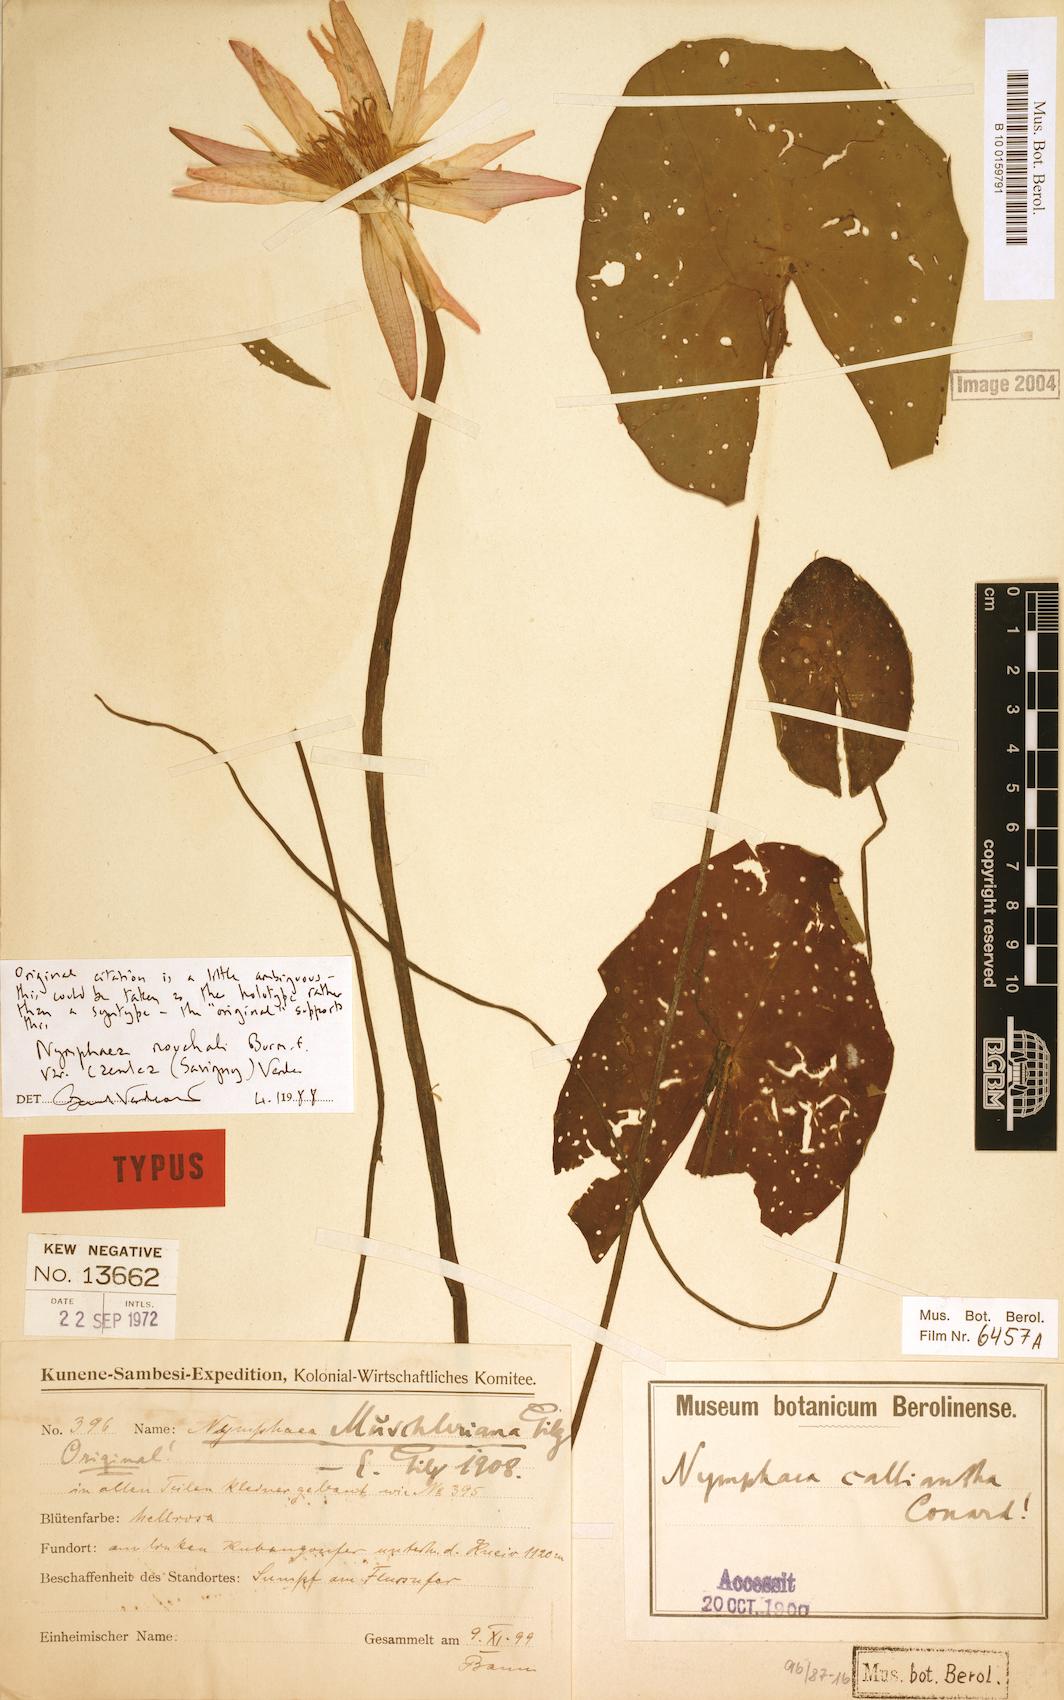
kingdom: Plantae
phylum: Tracheophyta
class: Magnoliopsida
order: Nymphaeales
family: Nymphaeaceae
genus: Nymphaea
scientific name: Nymphaea nouchali
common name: Blue lotus
